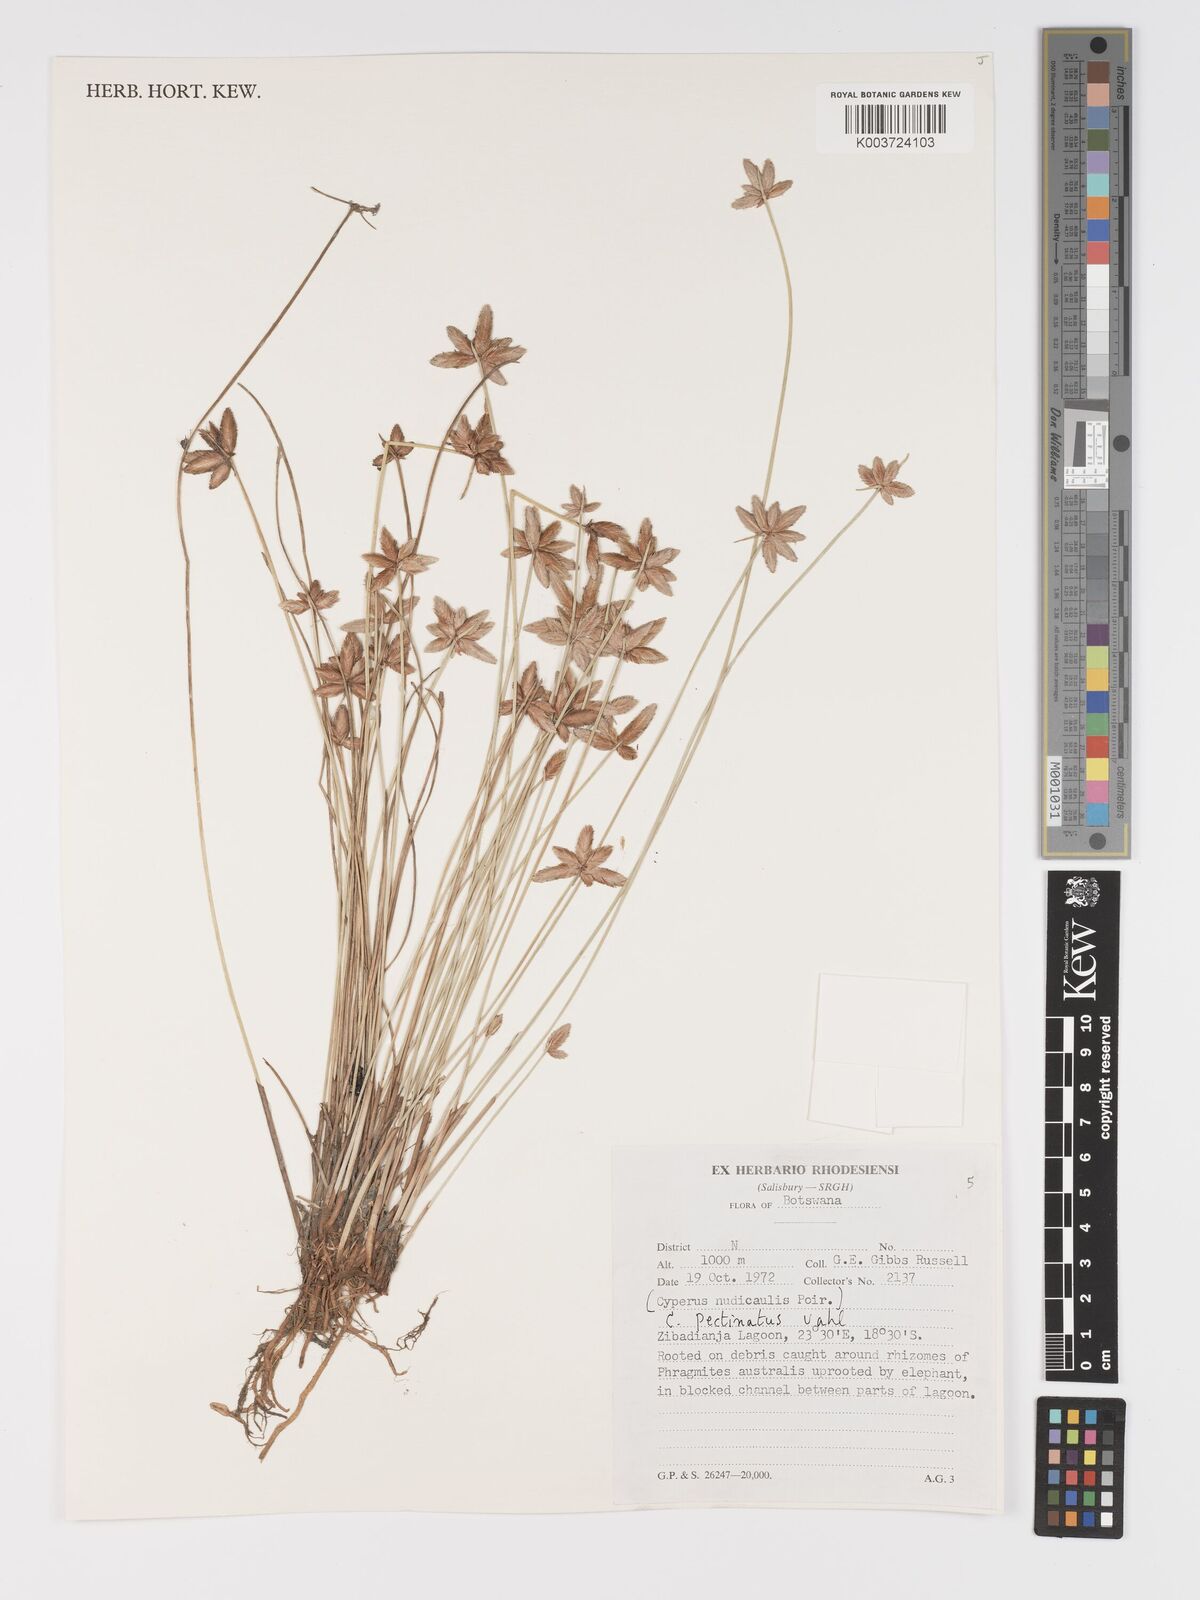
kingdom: Plantae
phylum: Tracheophyta
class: Liliopsida
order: Poales
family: Cyperaceae
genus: Cyperus
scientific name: Cyperus compressus
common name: Poorland flatsedge
